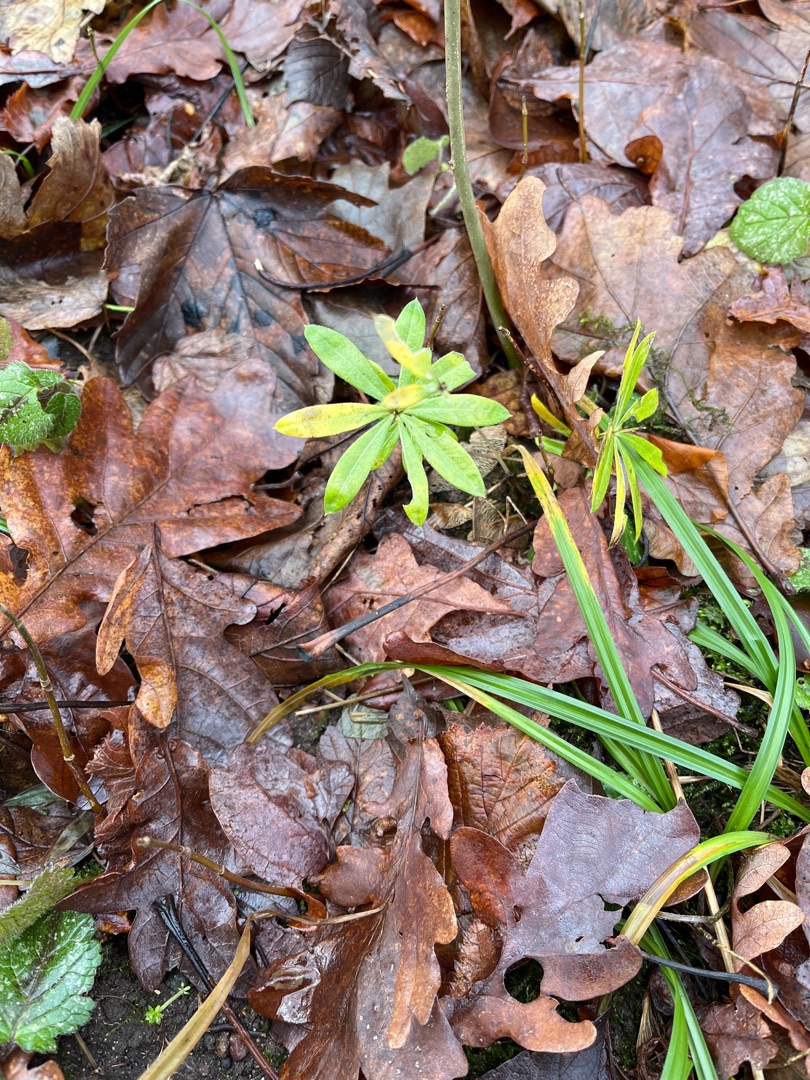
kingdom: Plantae
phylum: Tracheophyta
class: Magnoliopsida
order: Gentianales
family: Rubiaceae
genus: Galium
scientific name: Galium odoratum
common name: Skovmærke
